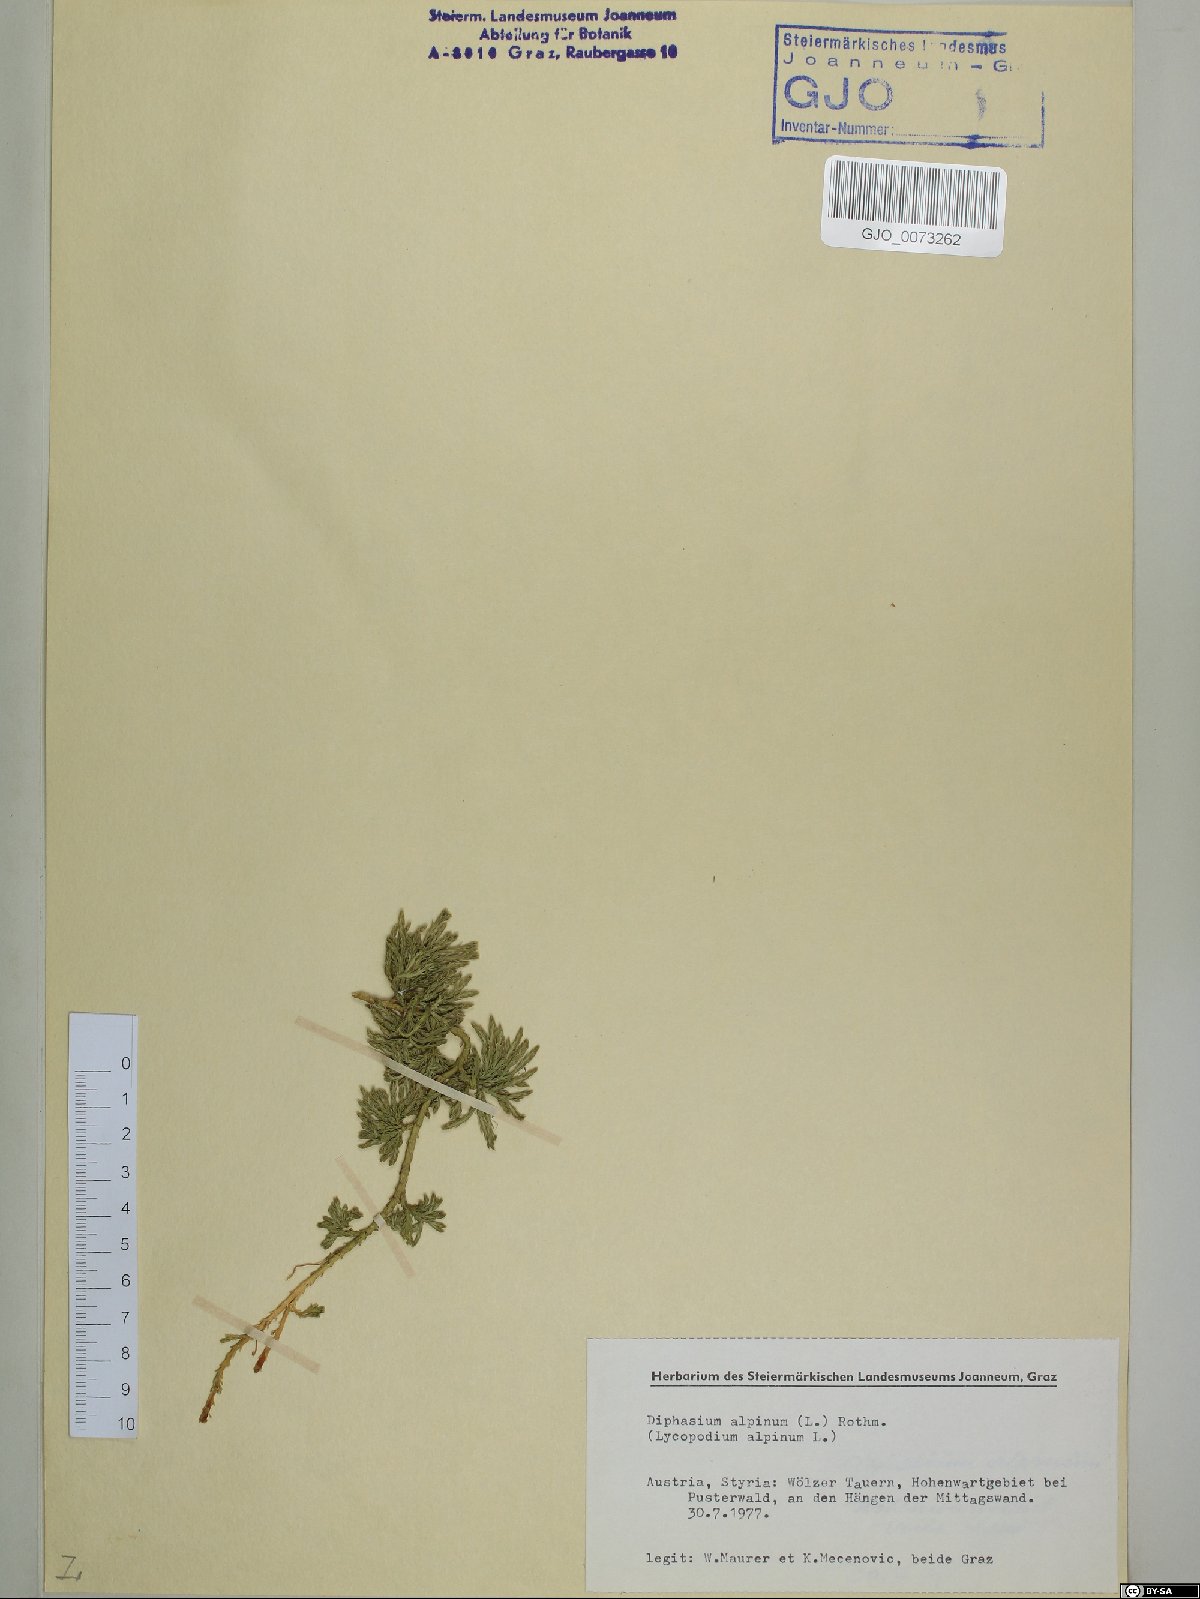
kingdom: Plantae
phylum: Tracheophyta
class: Lycopodiopsida
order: Lycopodiales
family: Lycopodiaceae
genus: Diphasiastrum
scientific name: Diphasiastrum alpinum
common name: Alpine clubmoss
